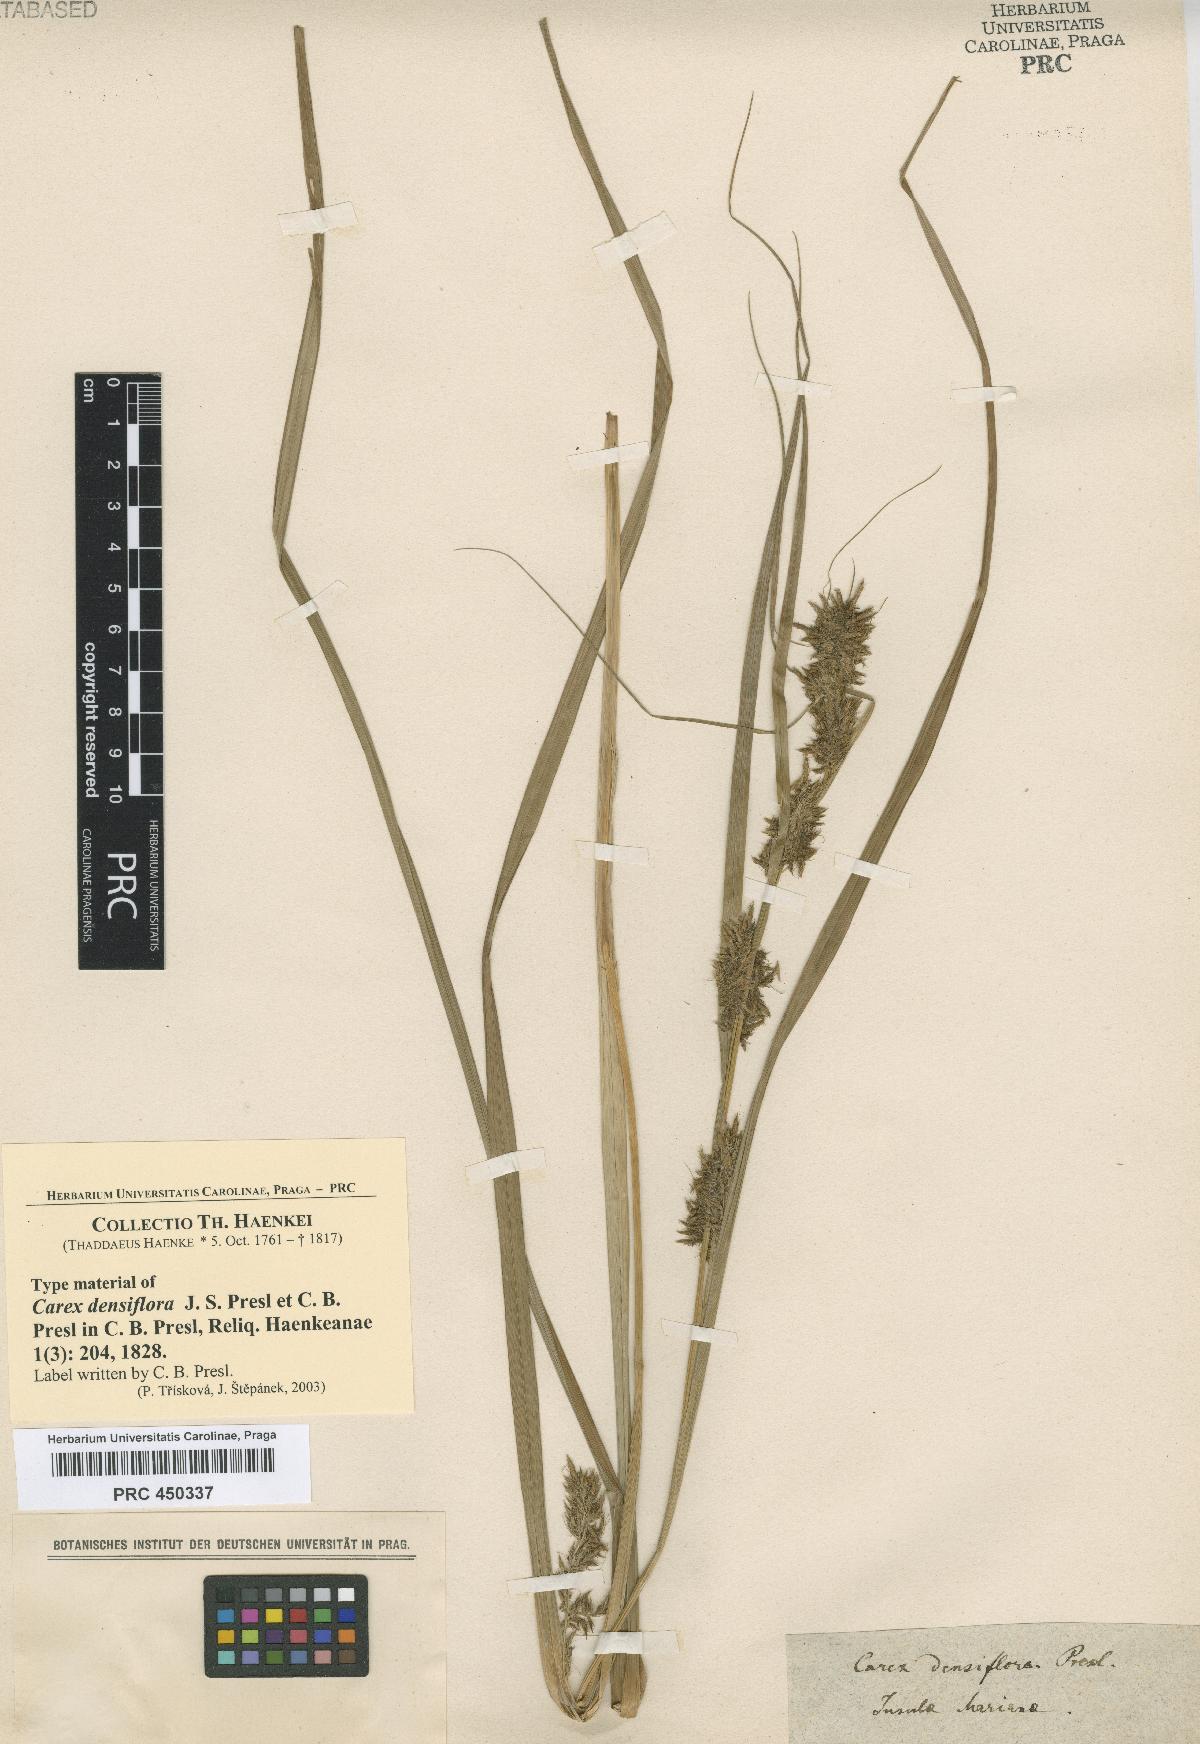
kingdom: Plantae
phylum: Tracheophyta
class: Liliopsida
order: Poales
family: Cyperaceae
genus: Carex
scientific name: Carex cirrhulosa
